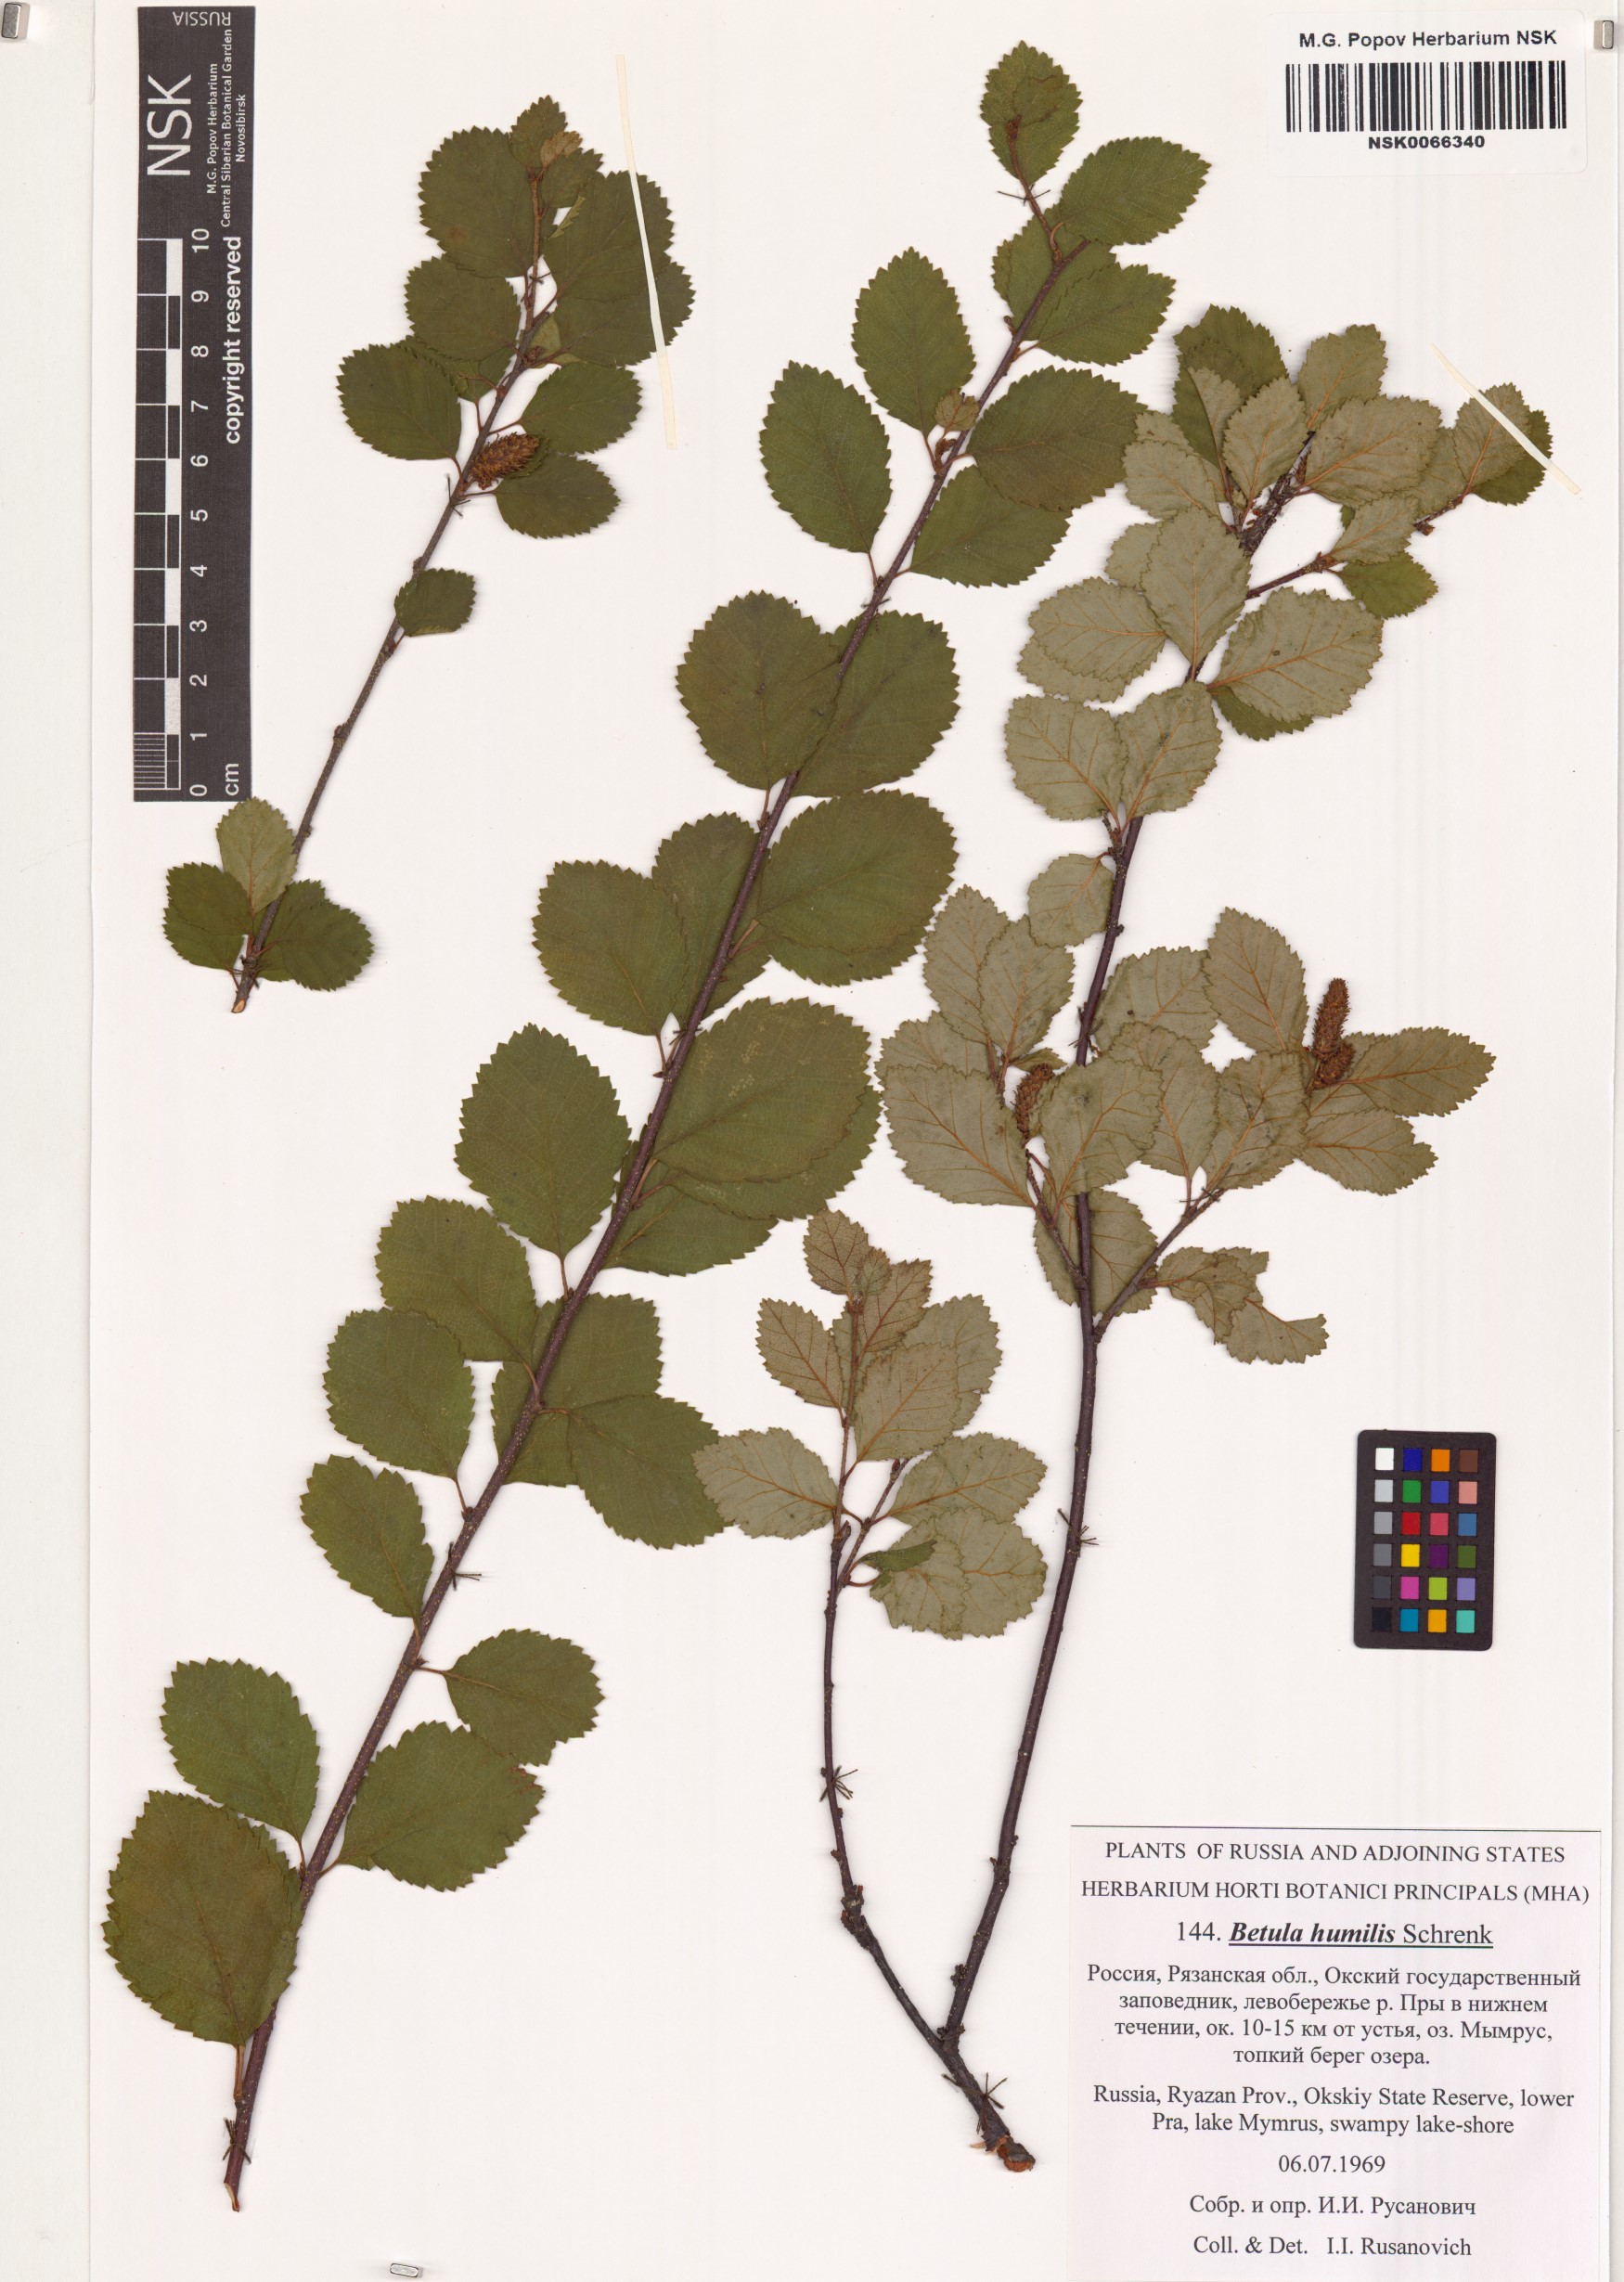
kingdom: Plantae
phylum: Tracheophyta
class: Magnoliopsida
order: Fagales
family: Betulaceae
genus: Betula
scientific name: Betula humilis
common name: Shrubby birch
